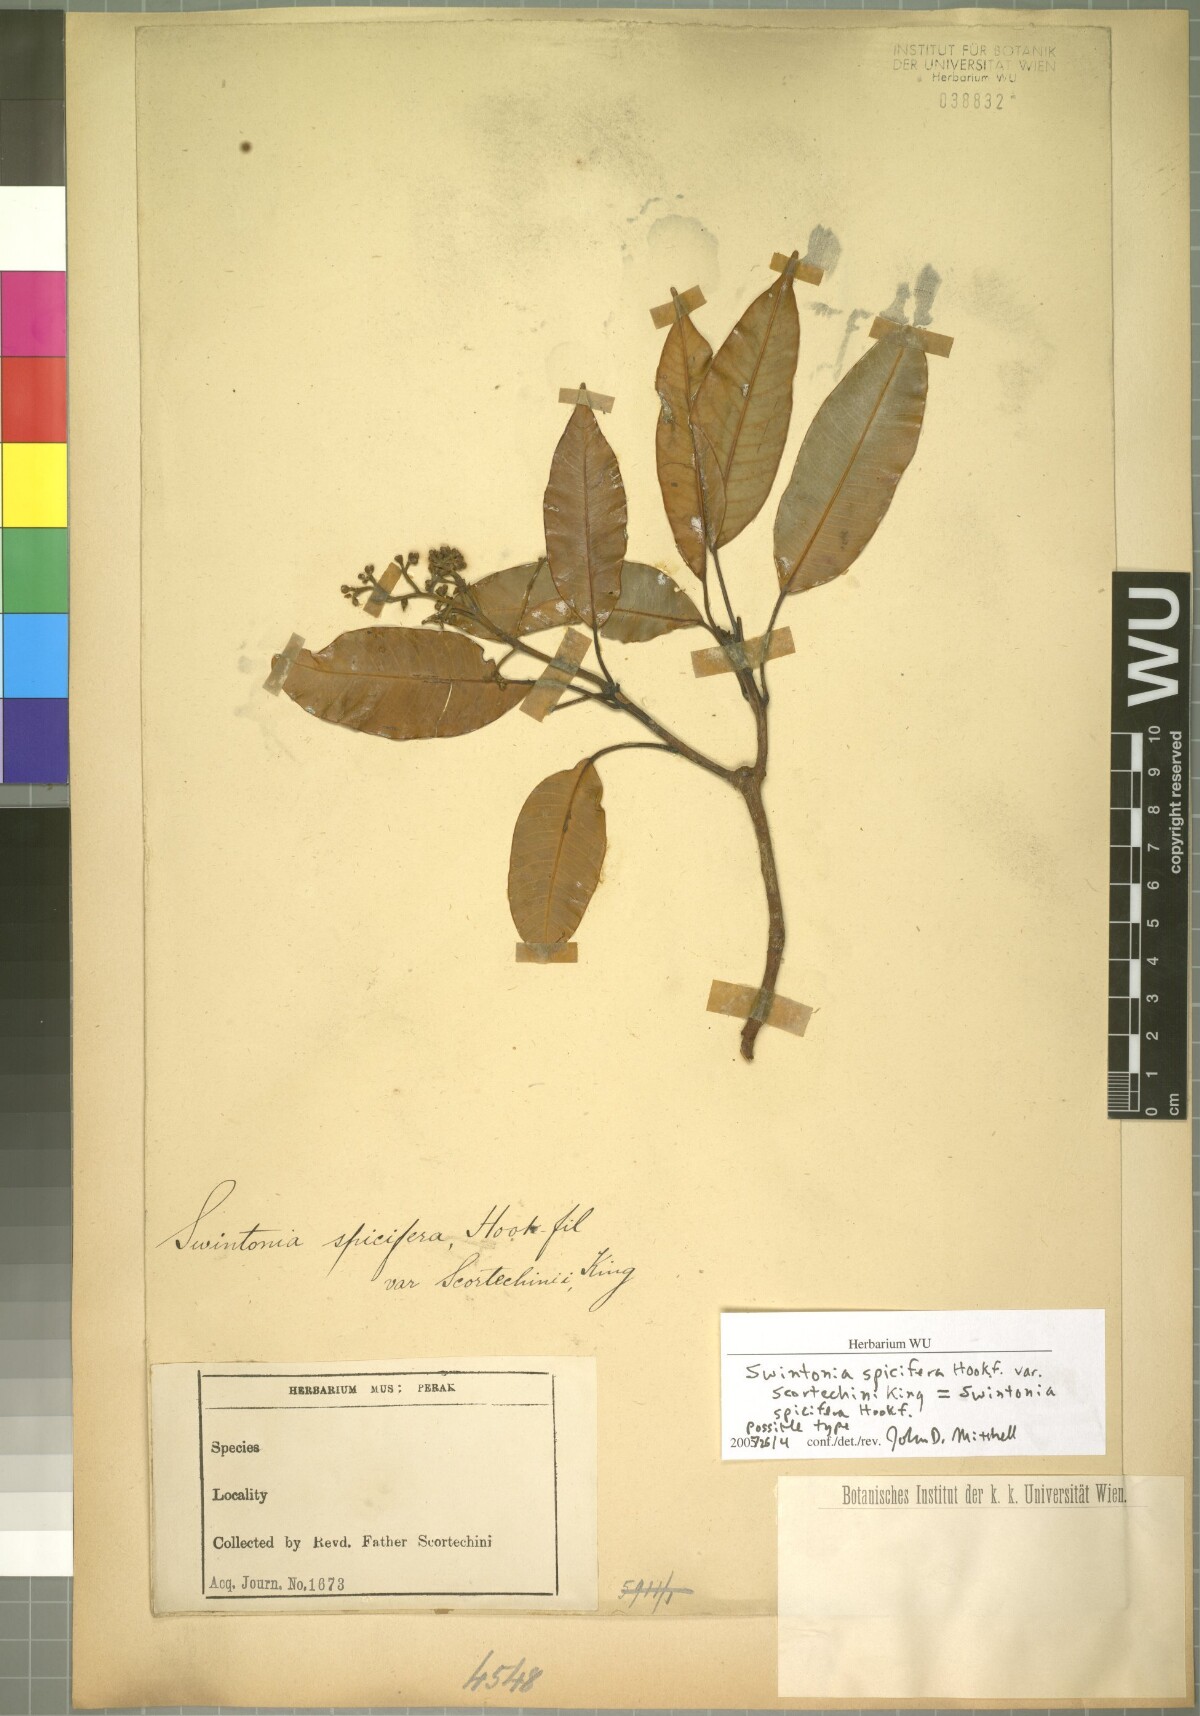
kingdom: Plantae
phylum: Tracheophyta
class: Magnoliopsida
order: Sapindales
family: Anacardiaceae
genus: Swintonia
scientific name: Swintonia spicifera
